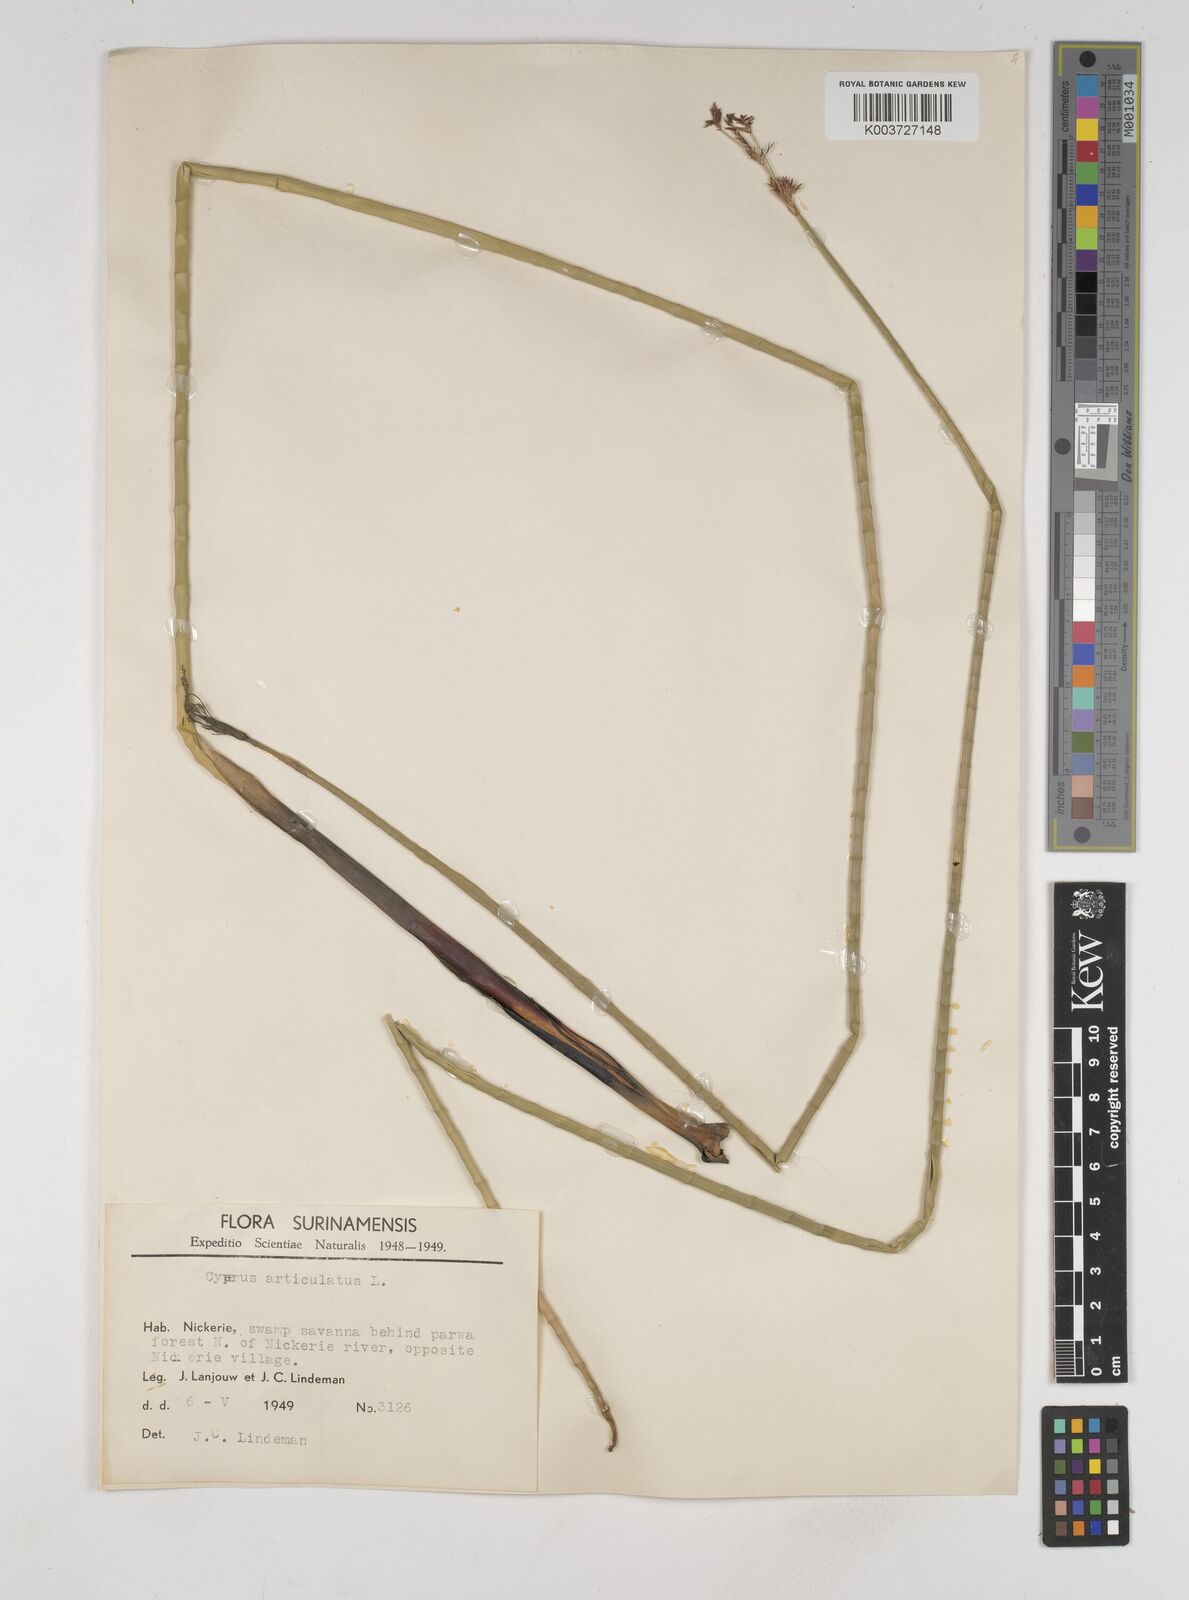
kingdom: Plantae
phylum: Tracheophyta
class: Liliopsida
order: Poales
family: Cyperaceae
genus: Cyperus
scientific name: Cyperus articulatus
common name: Jointed flatsedge
